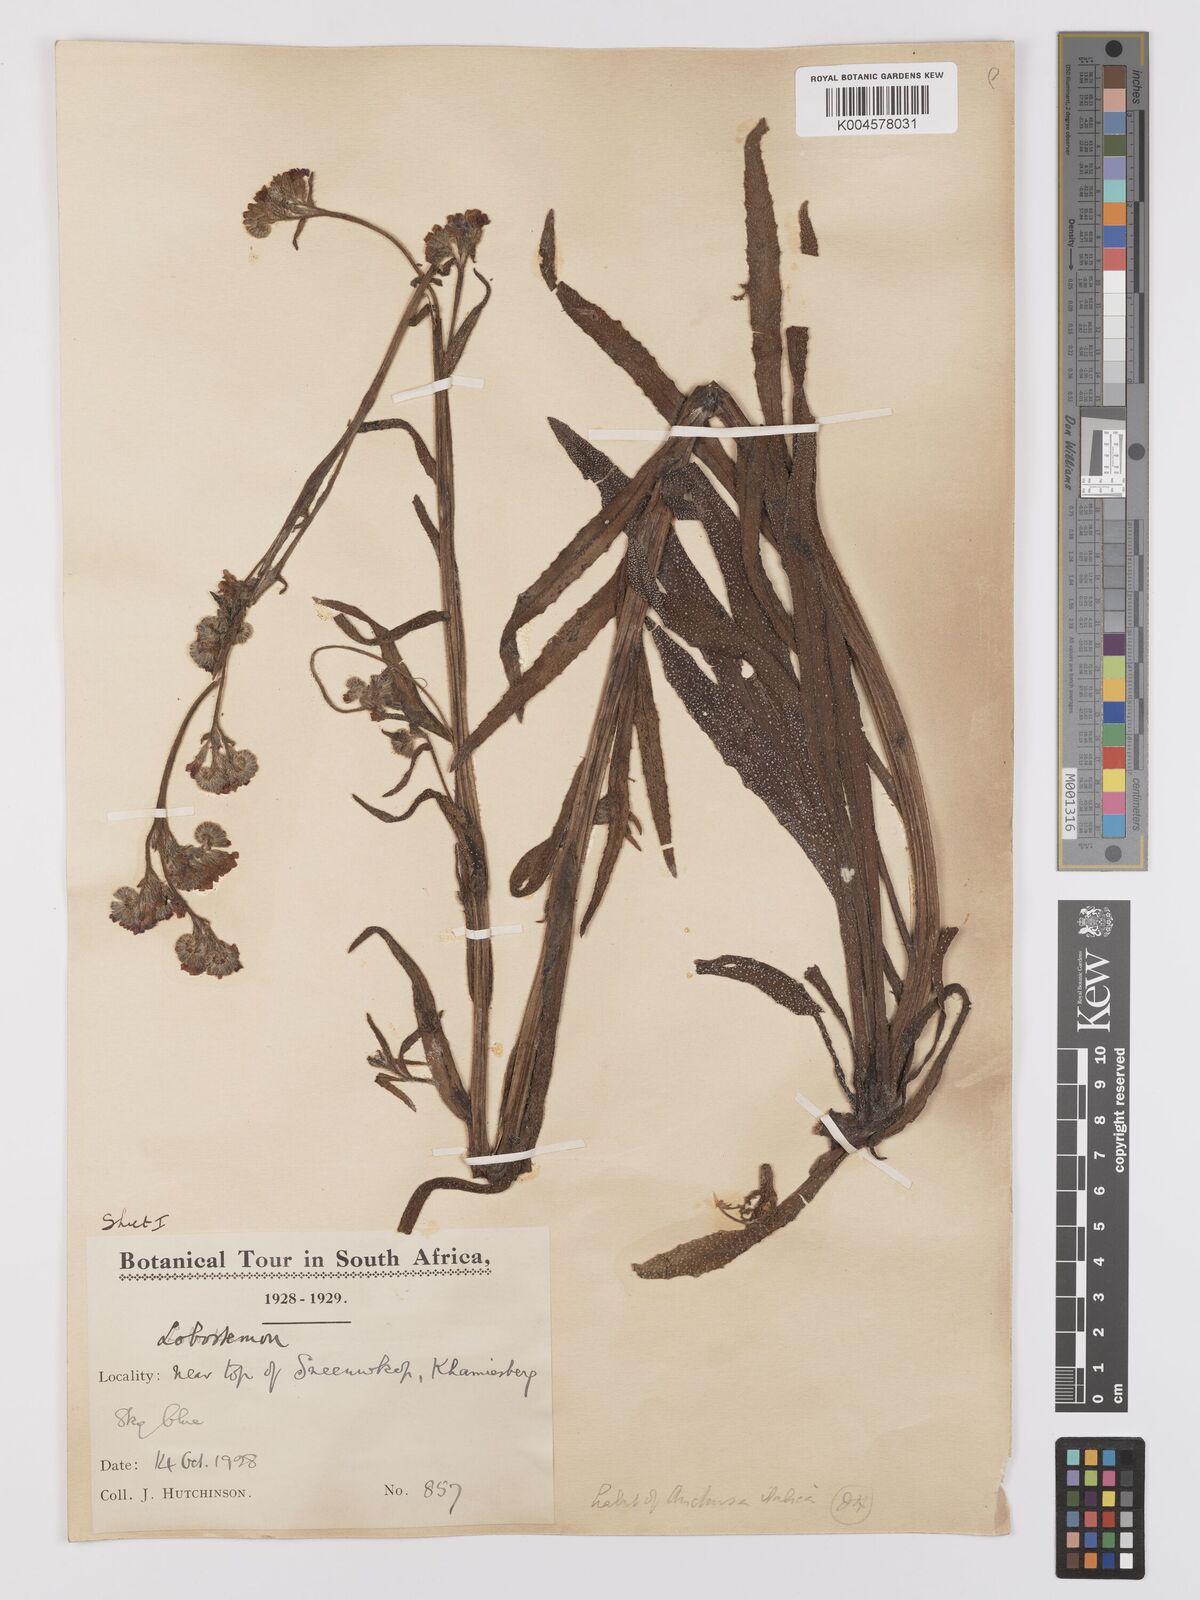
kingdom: Plantae
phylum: Tracheophyta
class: Magnoliopsida
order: Boraginales
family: Boraginaceae
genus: Anchusa
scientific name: Anchusa capensis
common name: Cape bugloss
